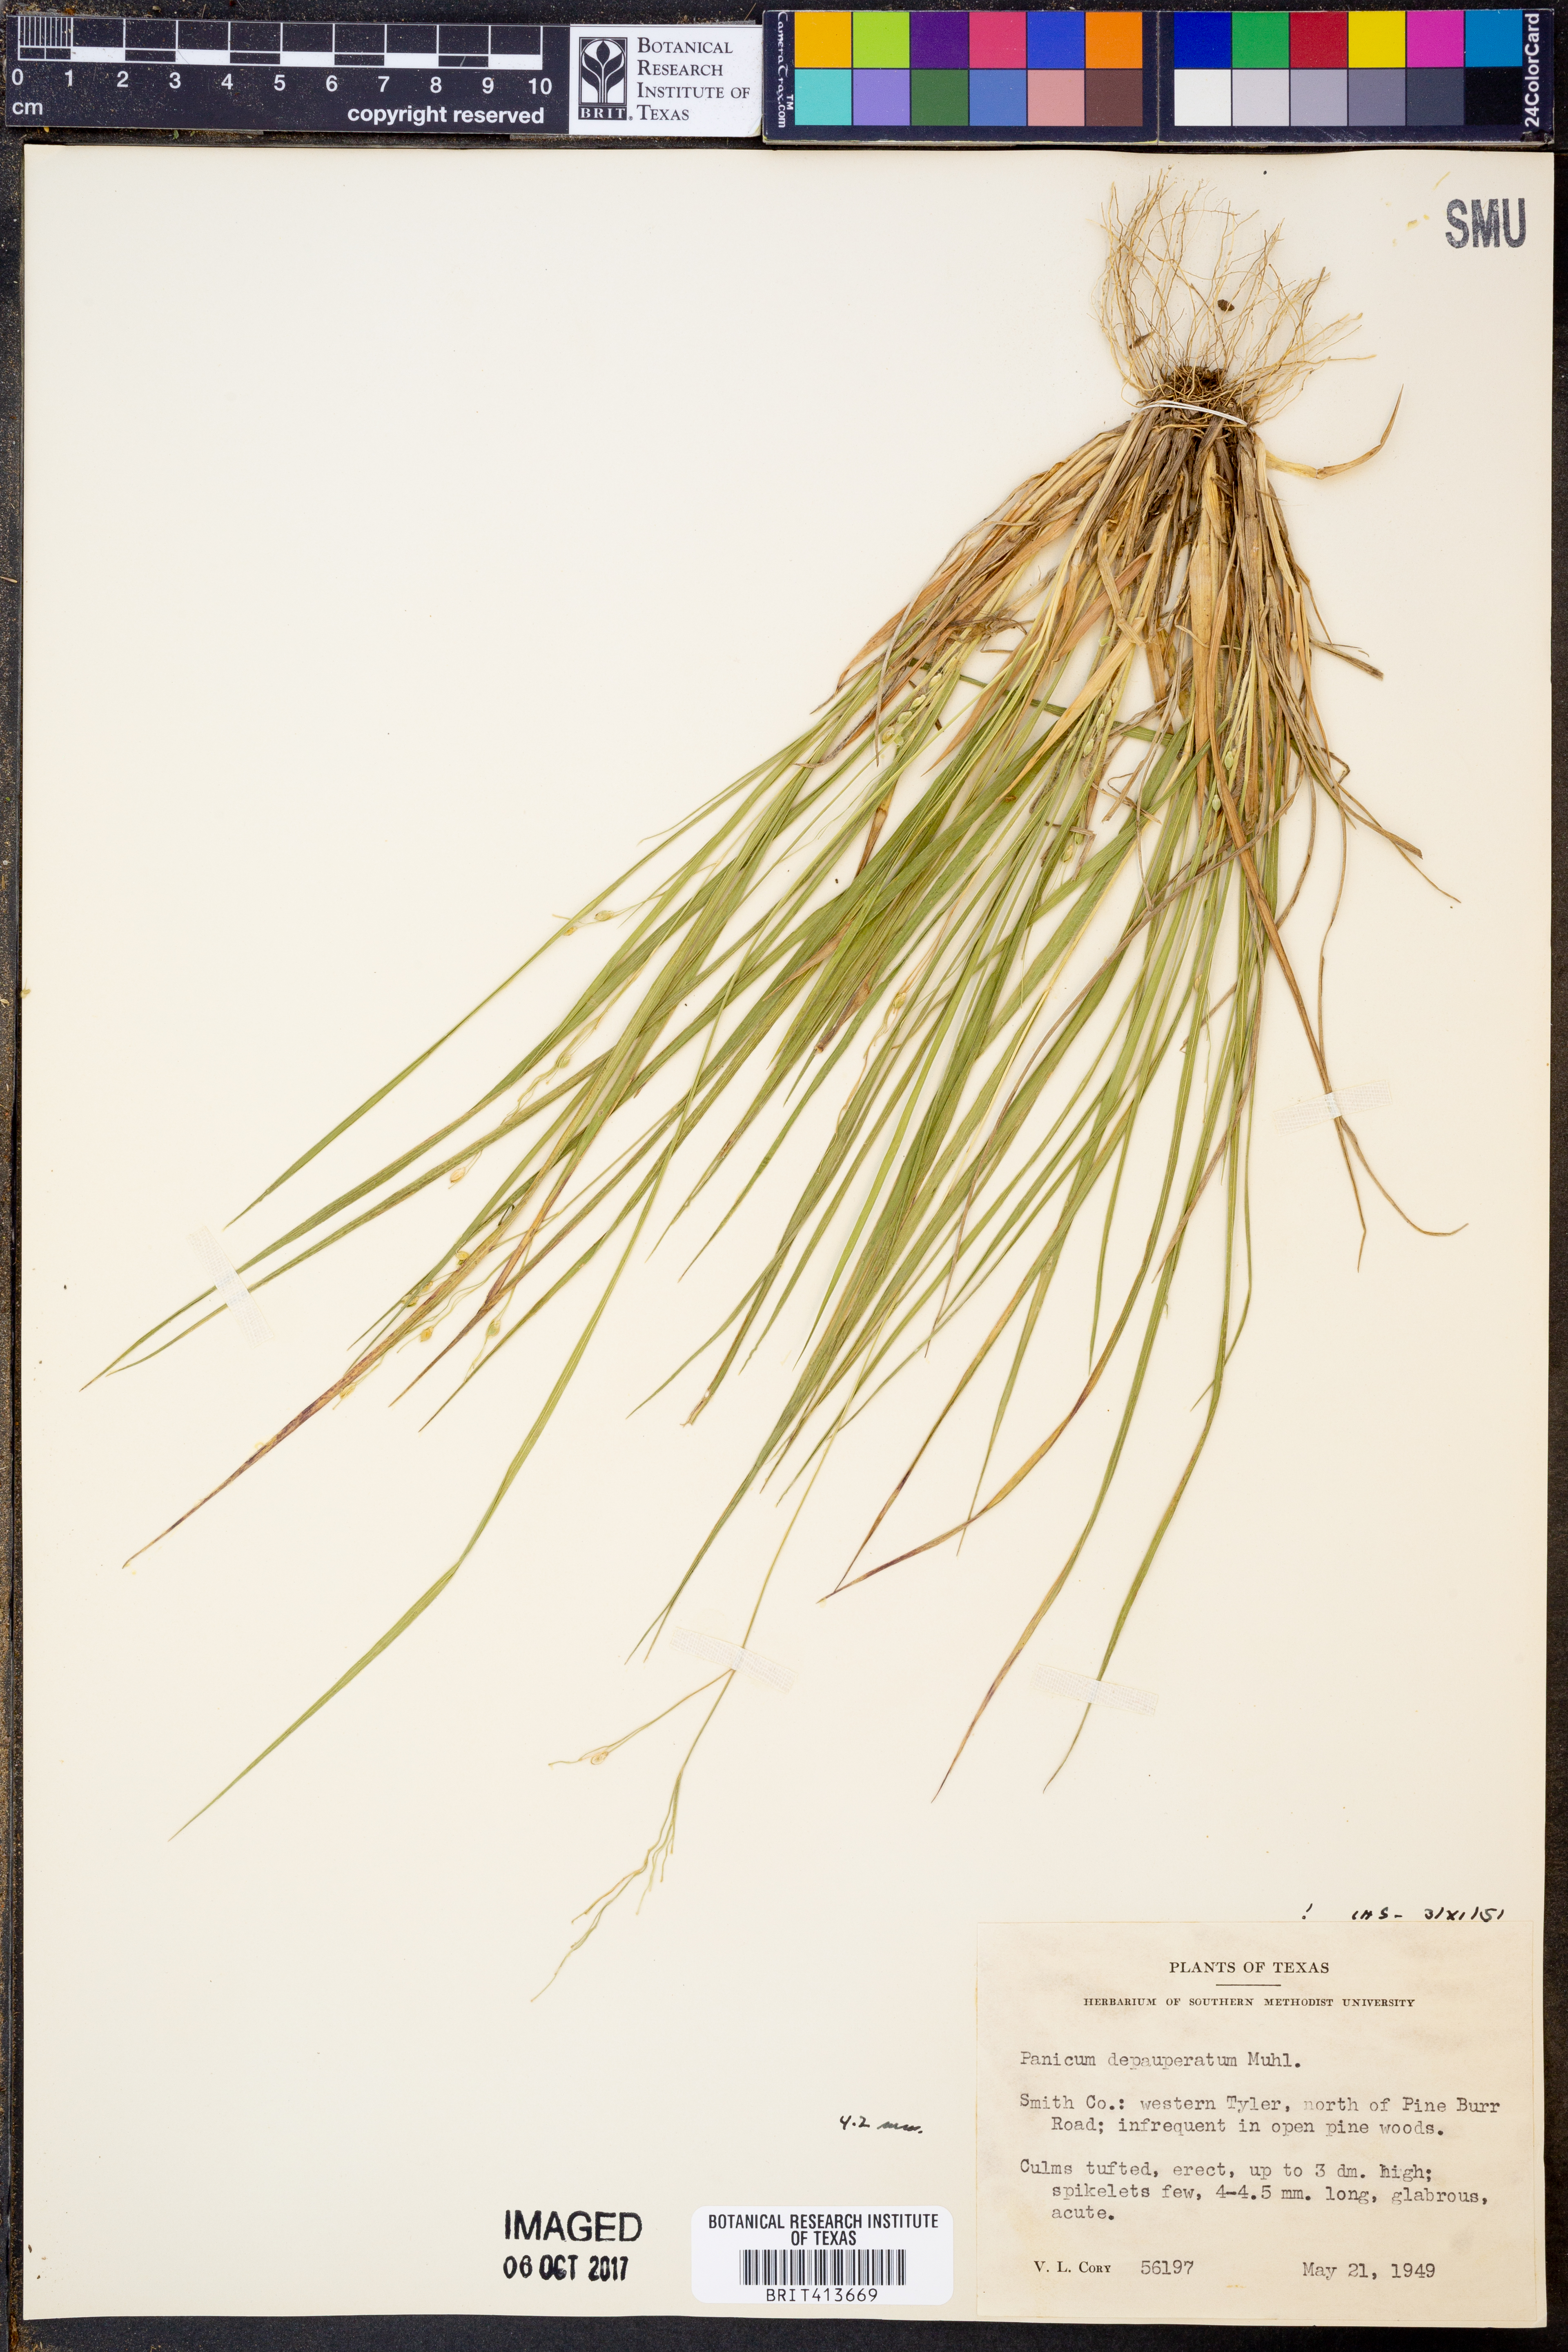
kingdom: Plantae
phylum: Tracheophyta
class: Liliopsida
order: Poales
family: Poaceae
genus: Dichanthelium
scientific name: Dichanthelium depauperatum
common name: Depauperate panicgrass
